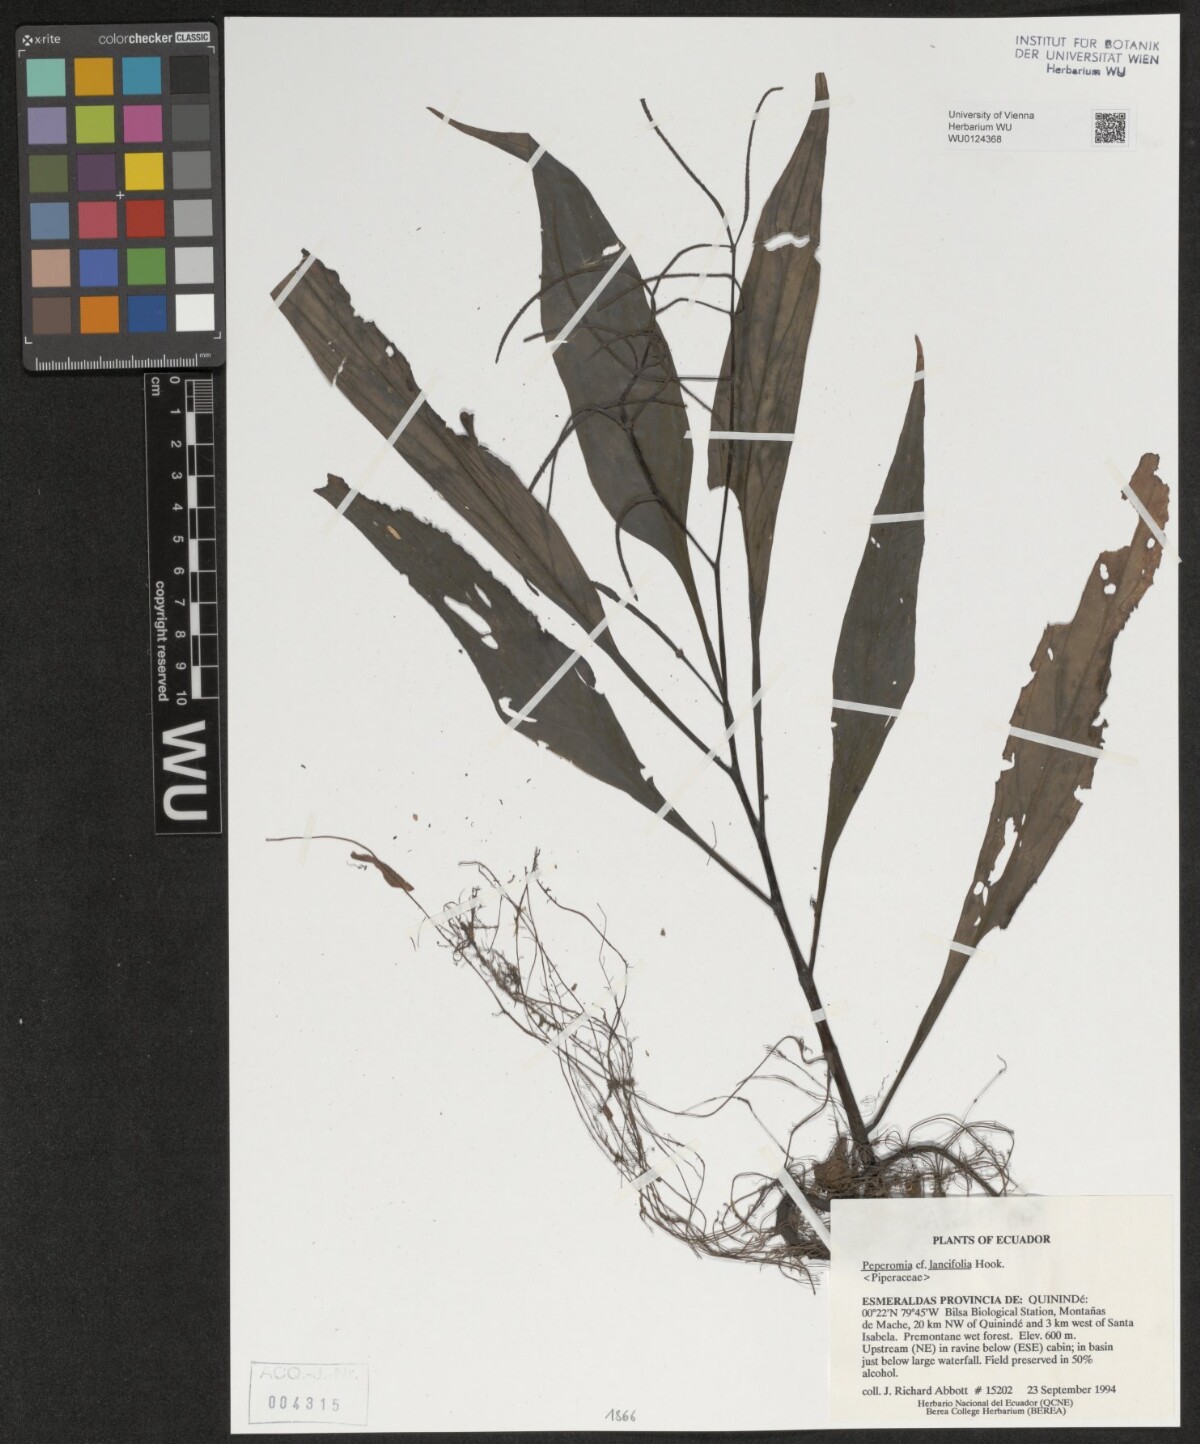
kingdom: Plantae
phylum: Tracheophyta
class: Magnoliopsida
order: Piperales
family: Piperaceae
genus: Peperomia
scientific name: Peperomia lancifolia
